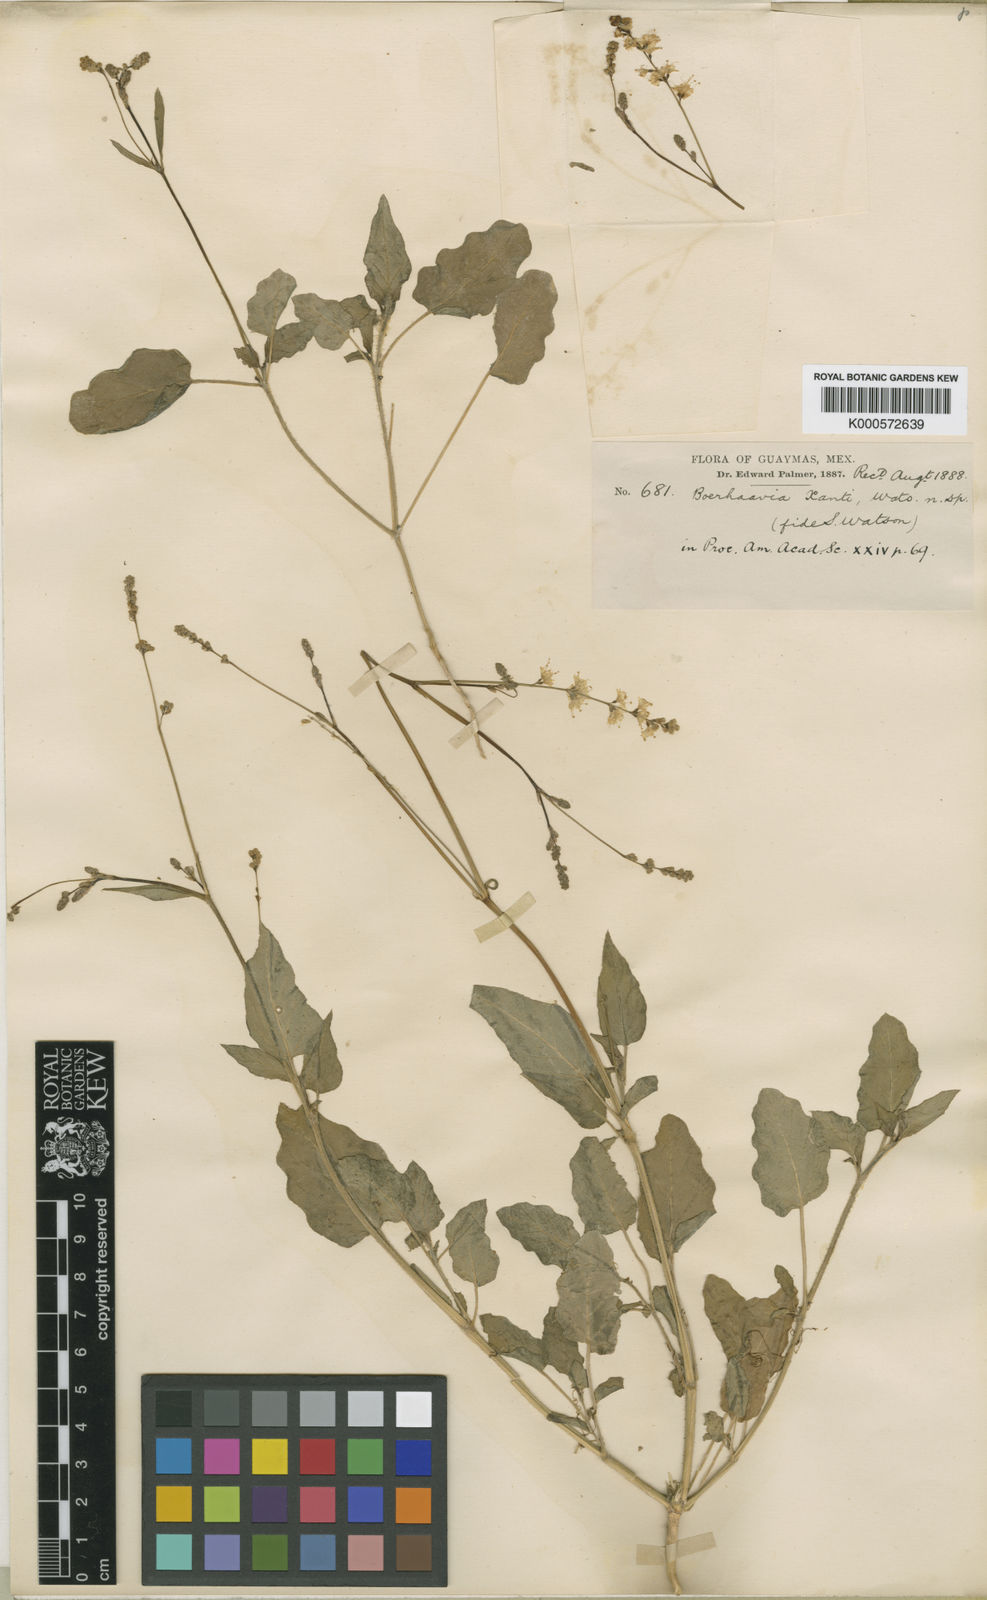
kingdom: Plantae
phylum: Tracheophyta
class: Magnoliopsida
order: Caryophyllales
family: Nyctaginaceae
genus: Boerhavia
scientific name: Boerhavia xantii
